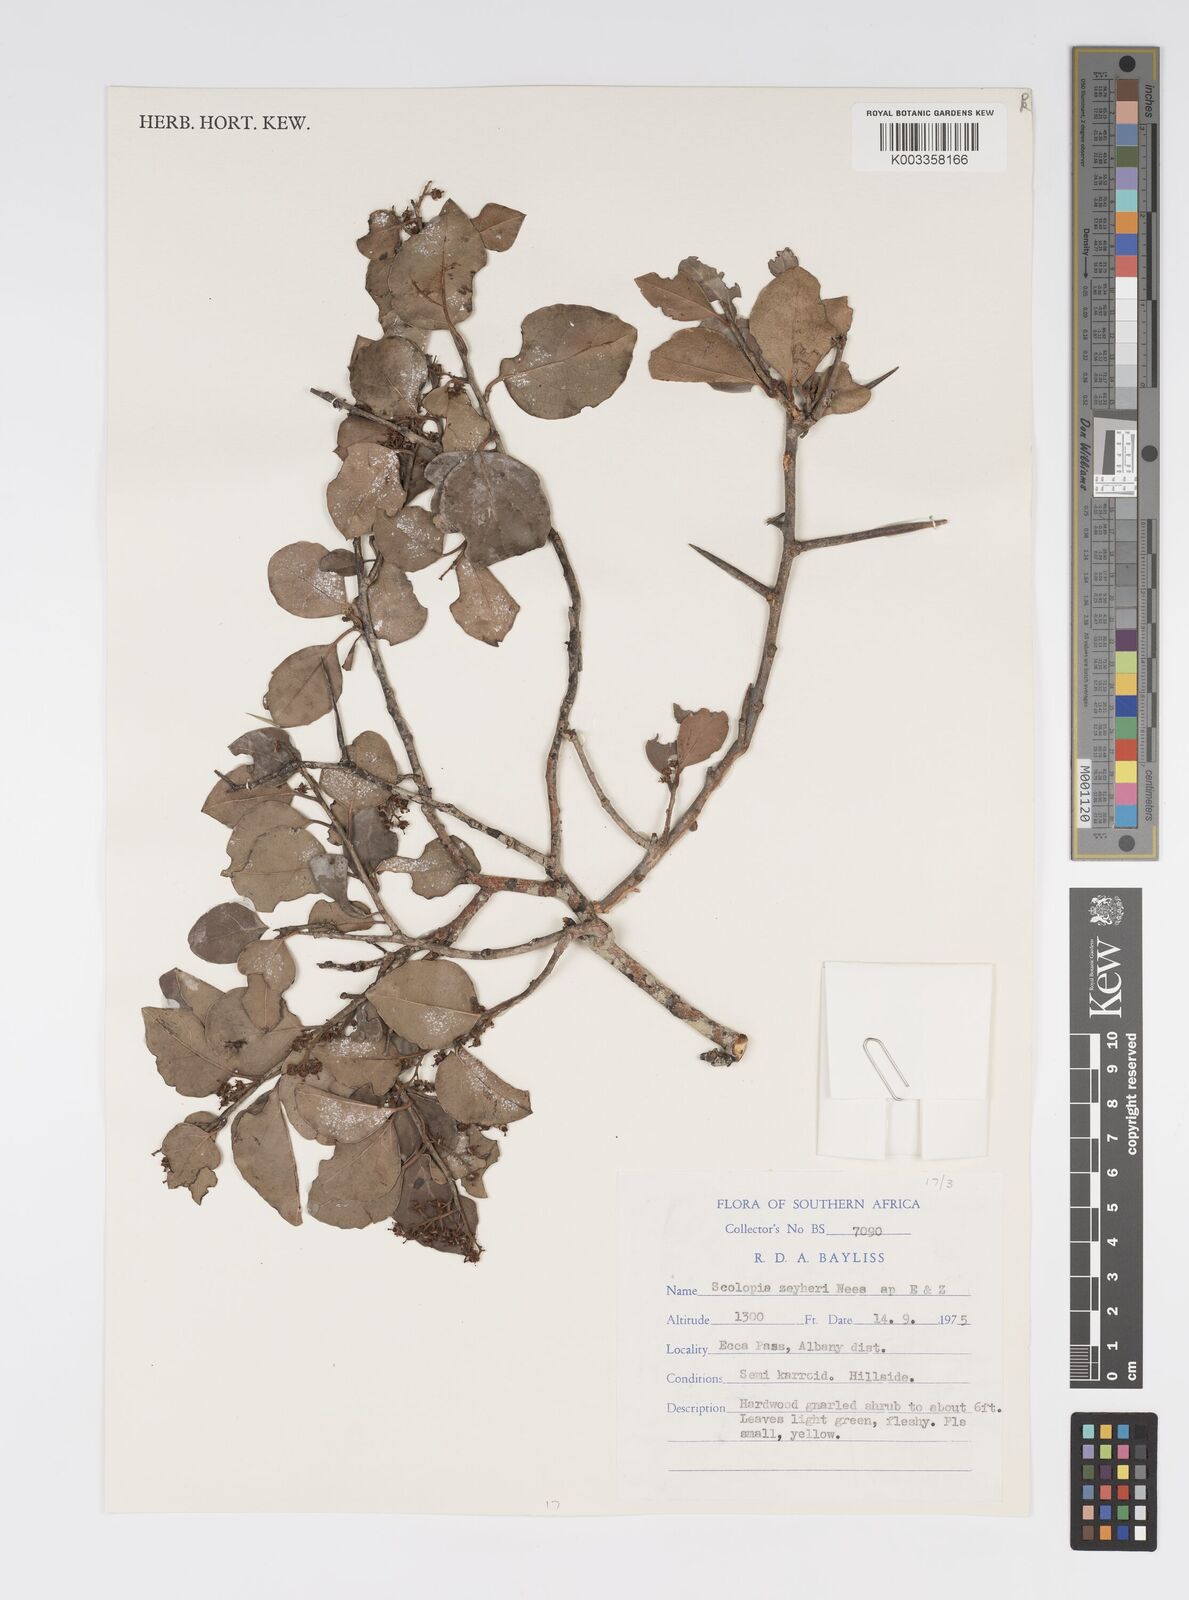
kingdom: Plantae
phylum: Tracheophyta
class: Magnoliopsida
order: Malpighiales
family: Salicaceae
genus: Scolopia
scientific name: Scolopia zeyheri
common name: Thorn pear
